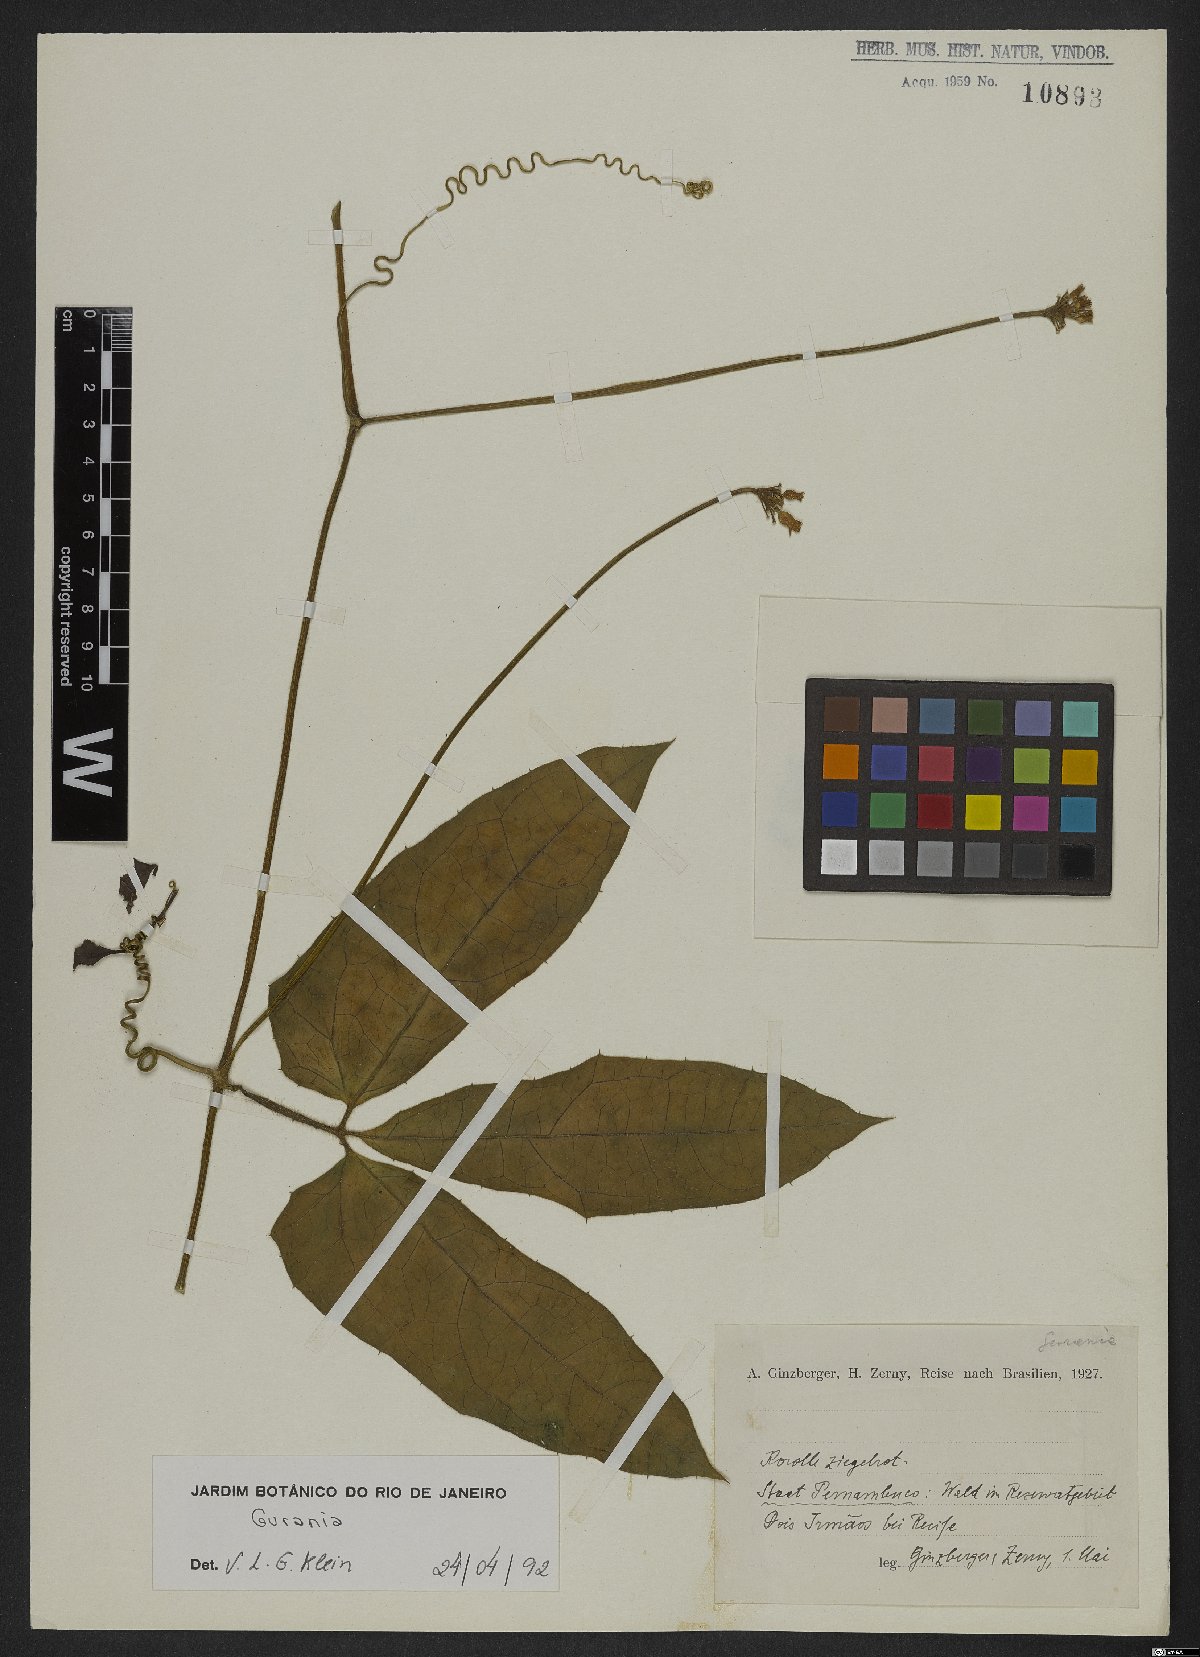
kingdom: Plantae
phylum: Tracheophyta
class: Magnoliopsida
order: Cucurbitales
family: Cucurbitaceae
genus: Gurania
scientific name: Gurania
